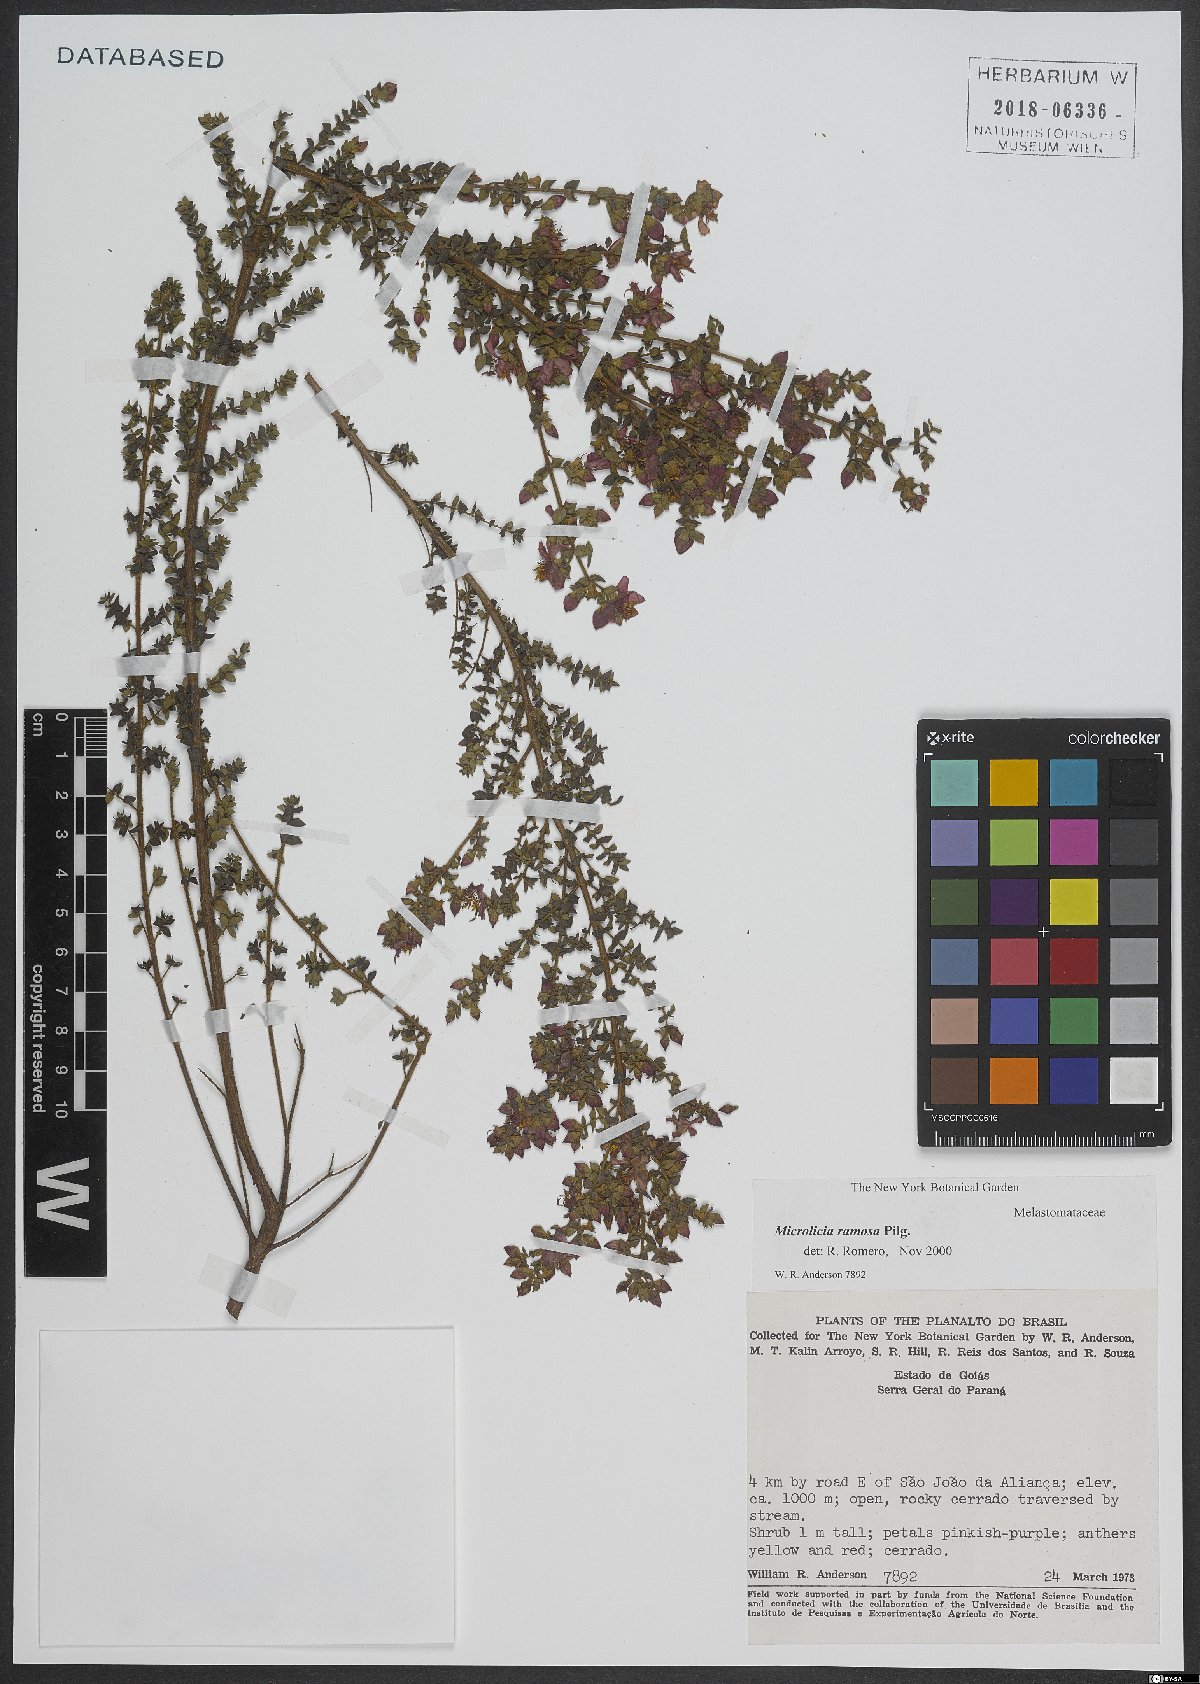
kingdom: Plantae
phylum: Tracheophyta
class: Magnoliopsida
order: Myrtales
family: Melastomataceae
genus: Microlicia
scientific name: Microlicia ramosa
